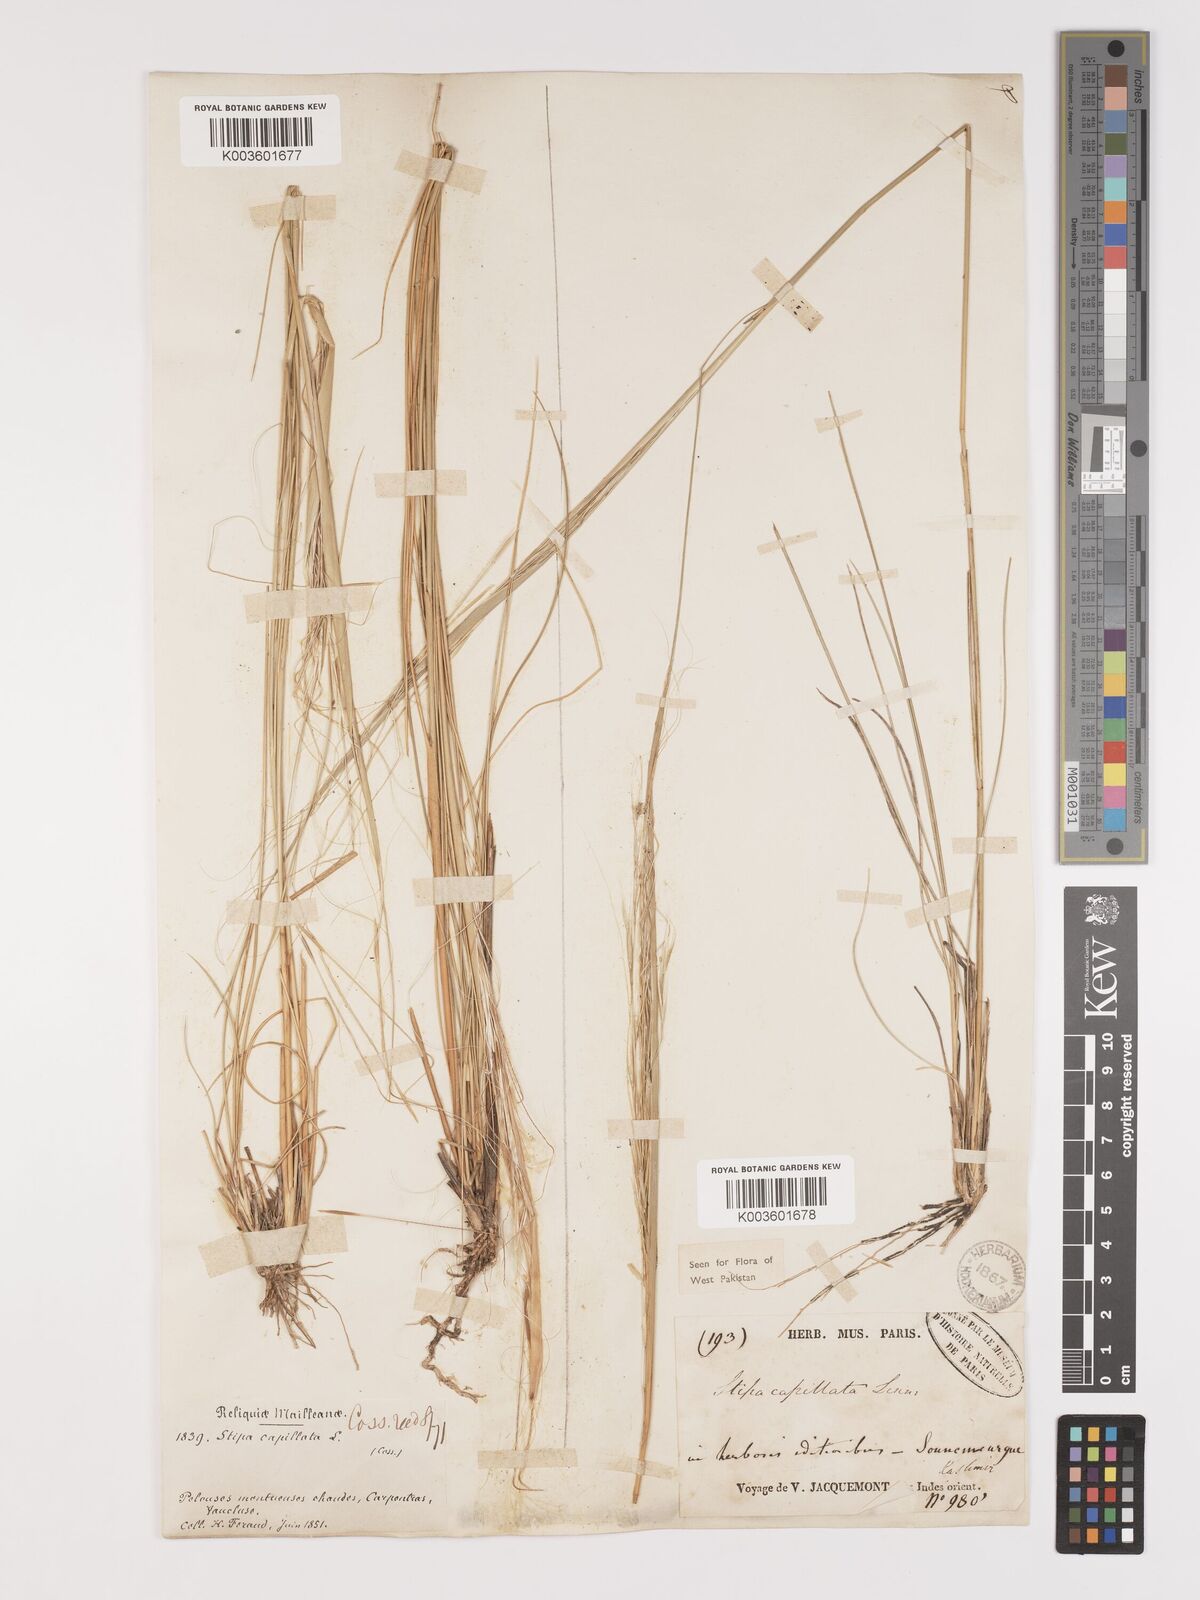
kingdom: Plantae
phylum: Tracheophyta
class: Liliopsida
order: Poales
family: Poaceae
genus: Stipa
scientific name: Stipa capillata
